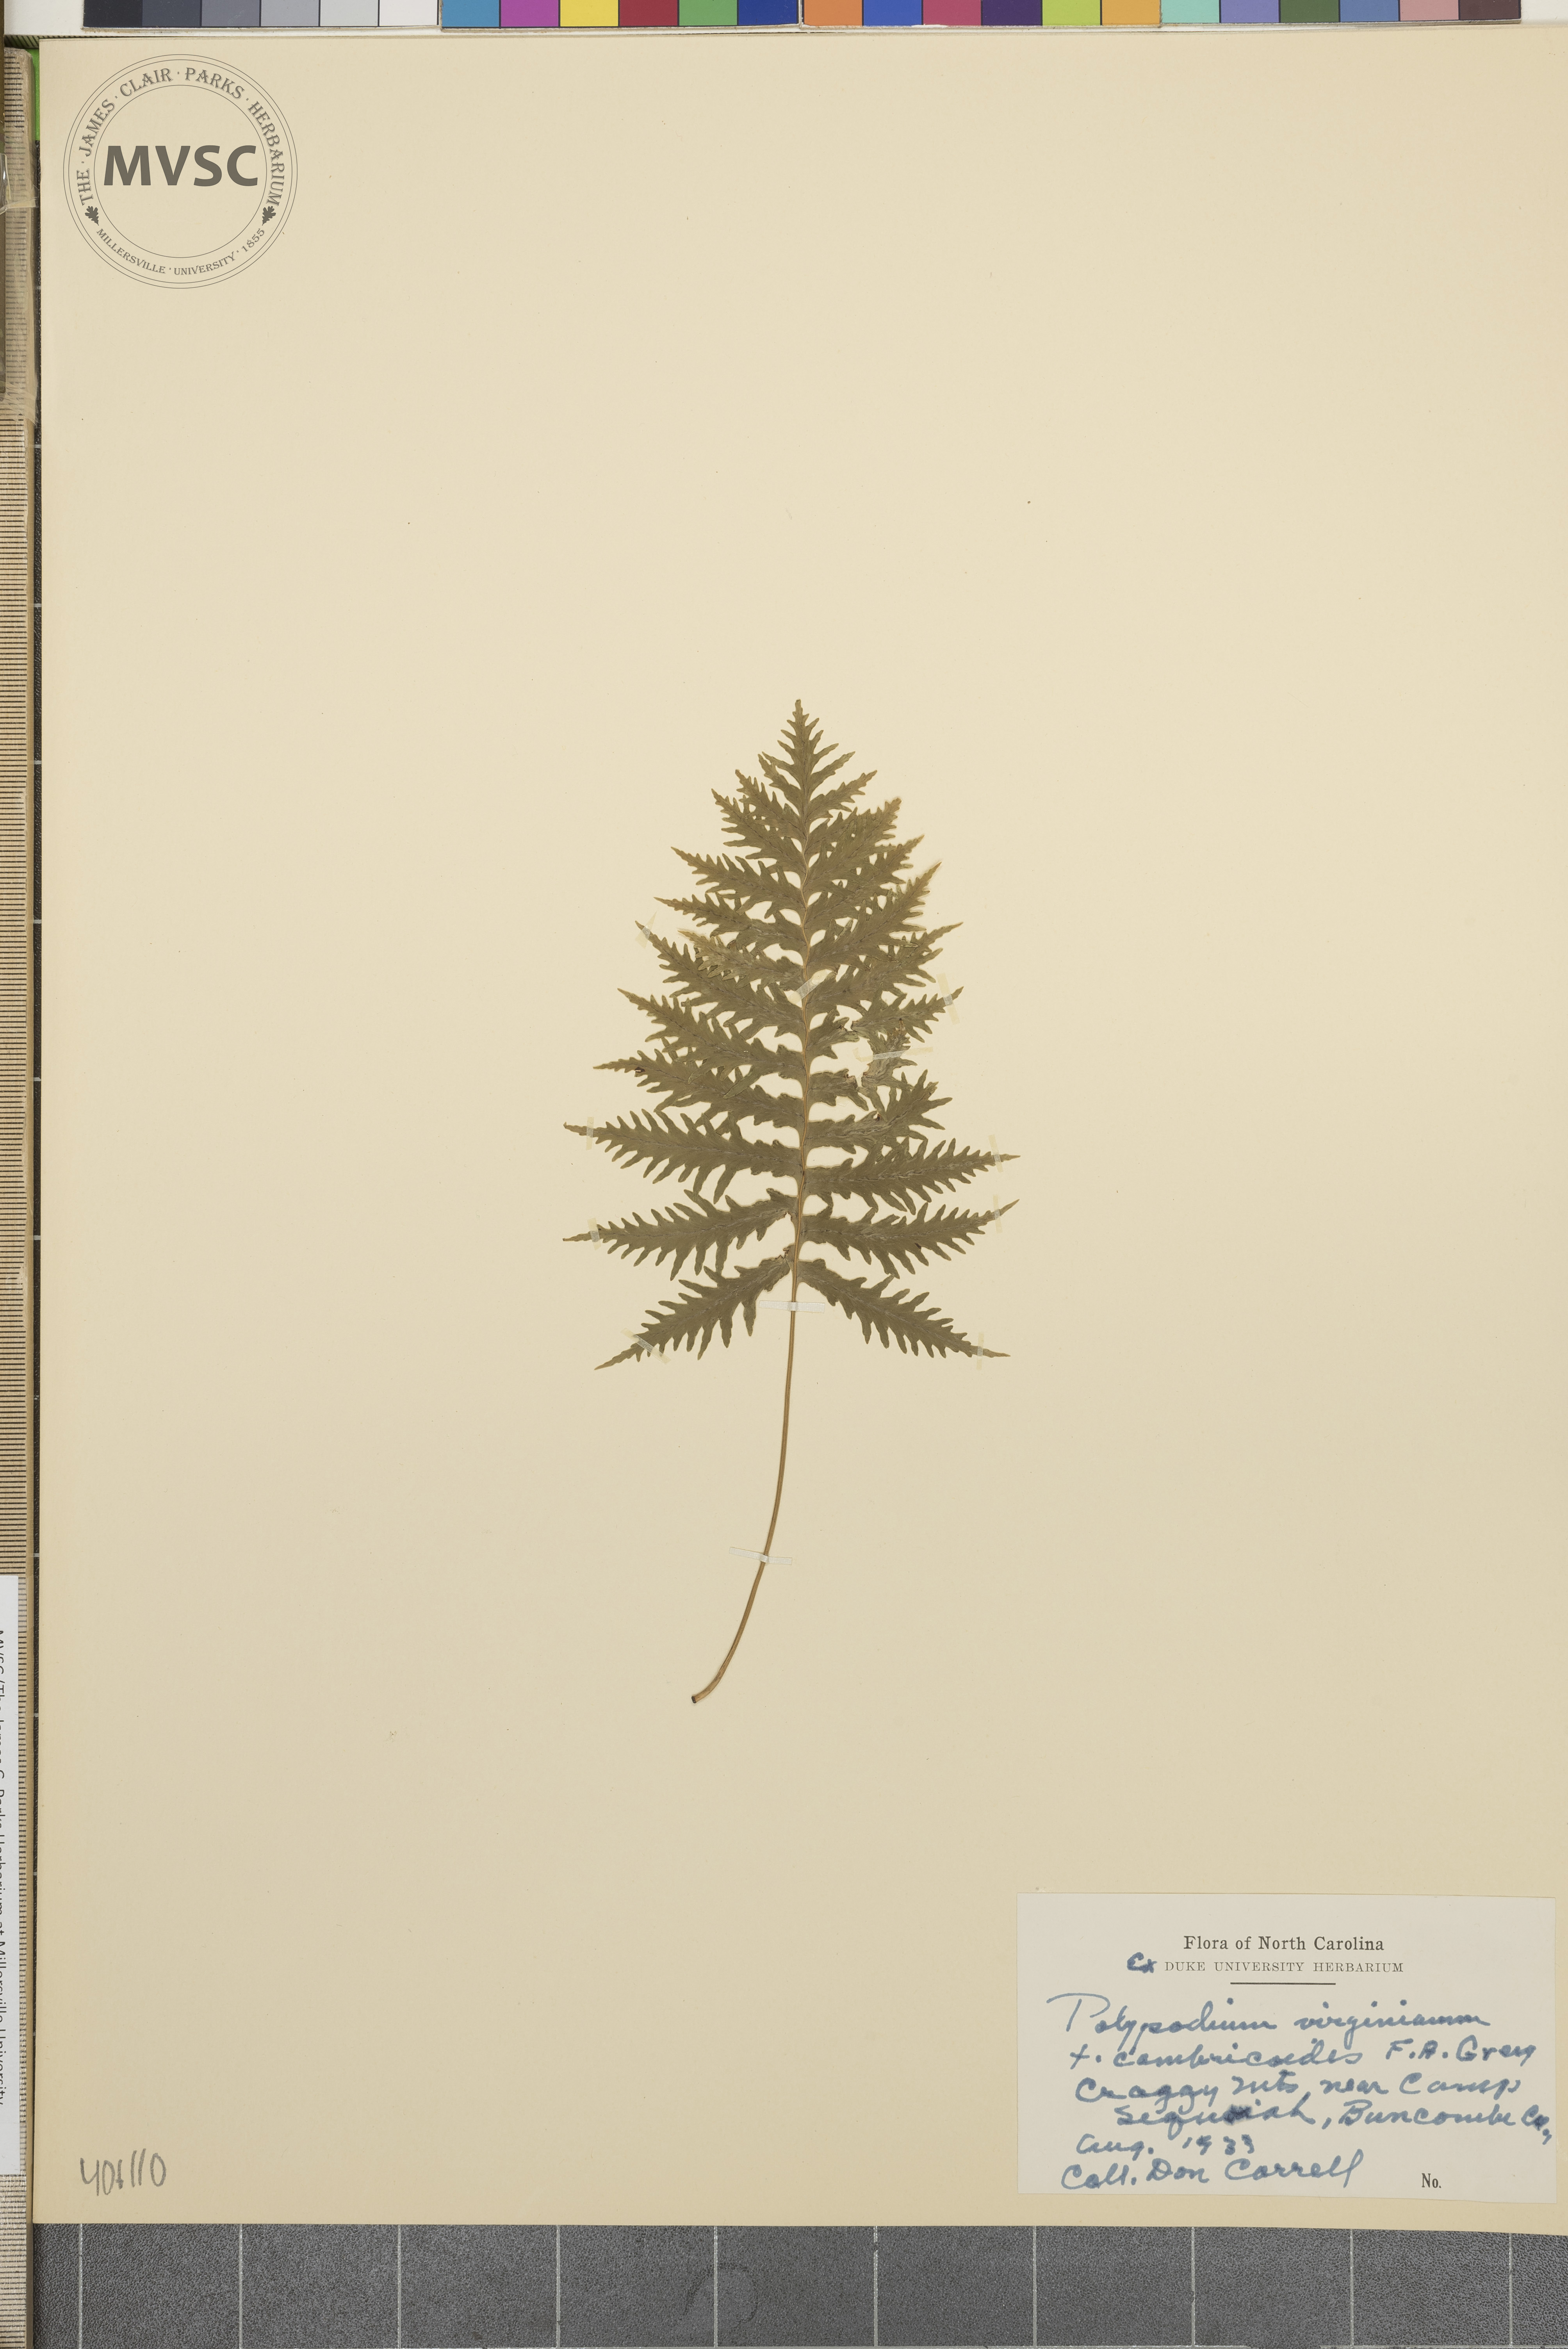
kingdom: Plantae
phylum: Tracheophyta
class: Polypodiopsida
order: Polypodiales
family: Polypodiaceae
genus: Polypodium
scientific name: Polypodium virginianum
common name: American wall fern
